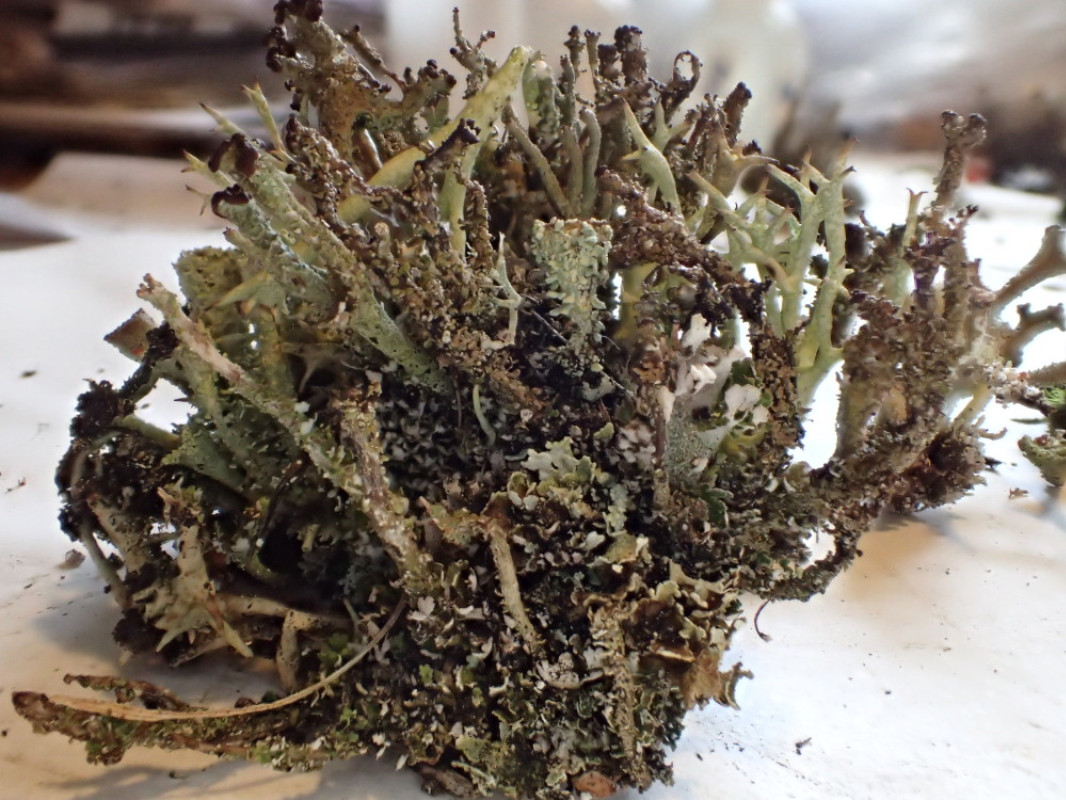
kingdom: Fungi
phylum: Ascomycota
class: Lecanoromycetes
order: Lecanorales
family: Cladoniaceae
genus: Cladonia
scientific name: Cladonia ramulosa
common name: kliddet bægerlav
